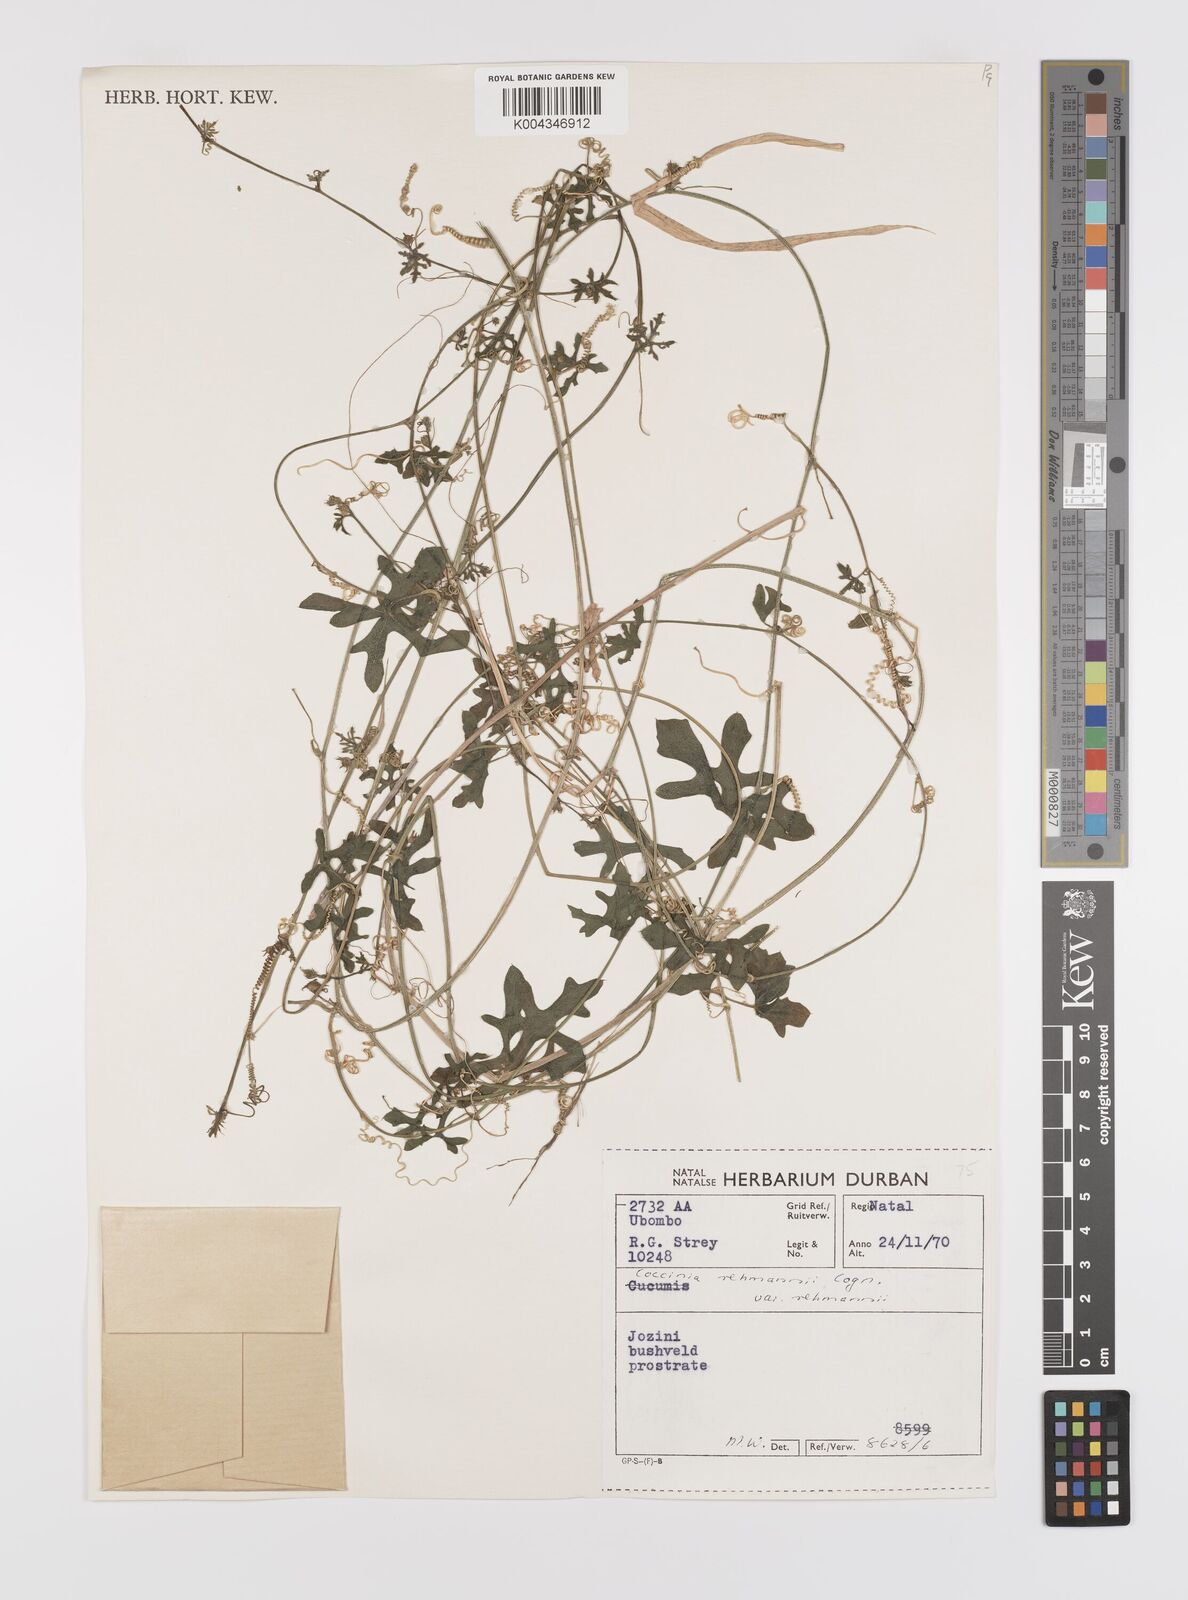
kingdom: Plantae
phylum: Tracheophyta
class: Magnoliopsida
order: Cucurbitales
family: Cucurbitaceae
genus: Coccinia
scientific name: Coccinia rehmannii
